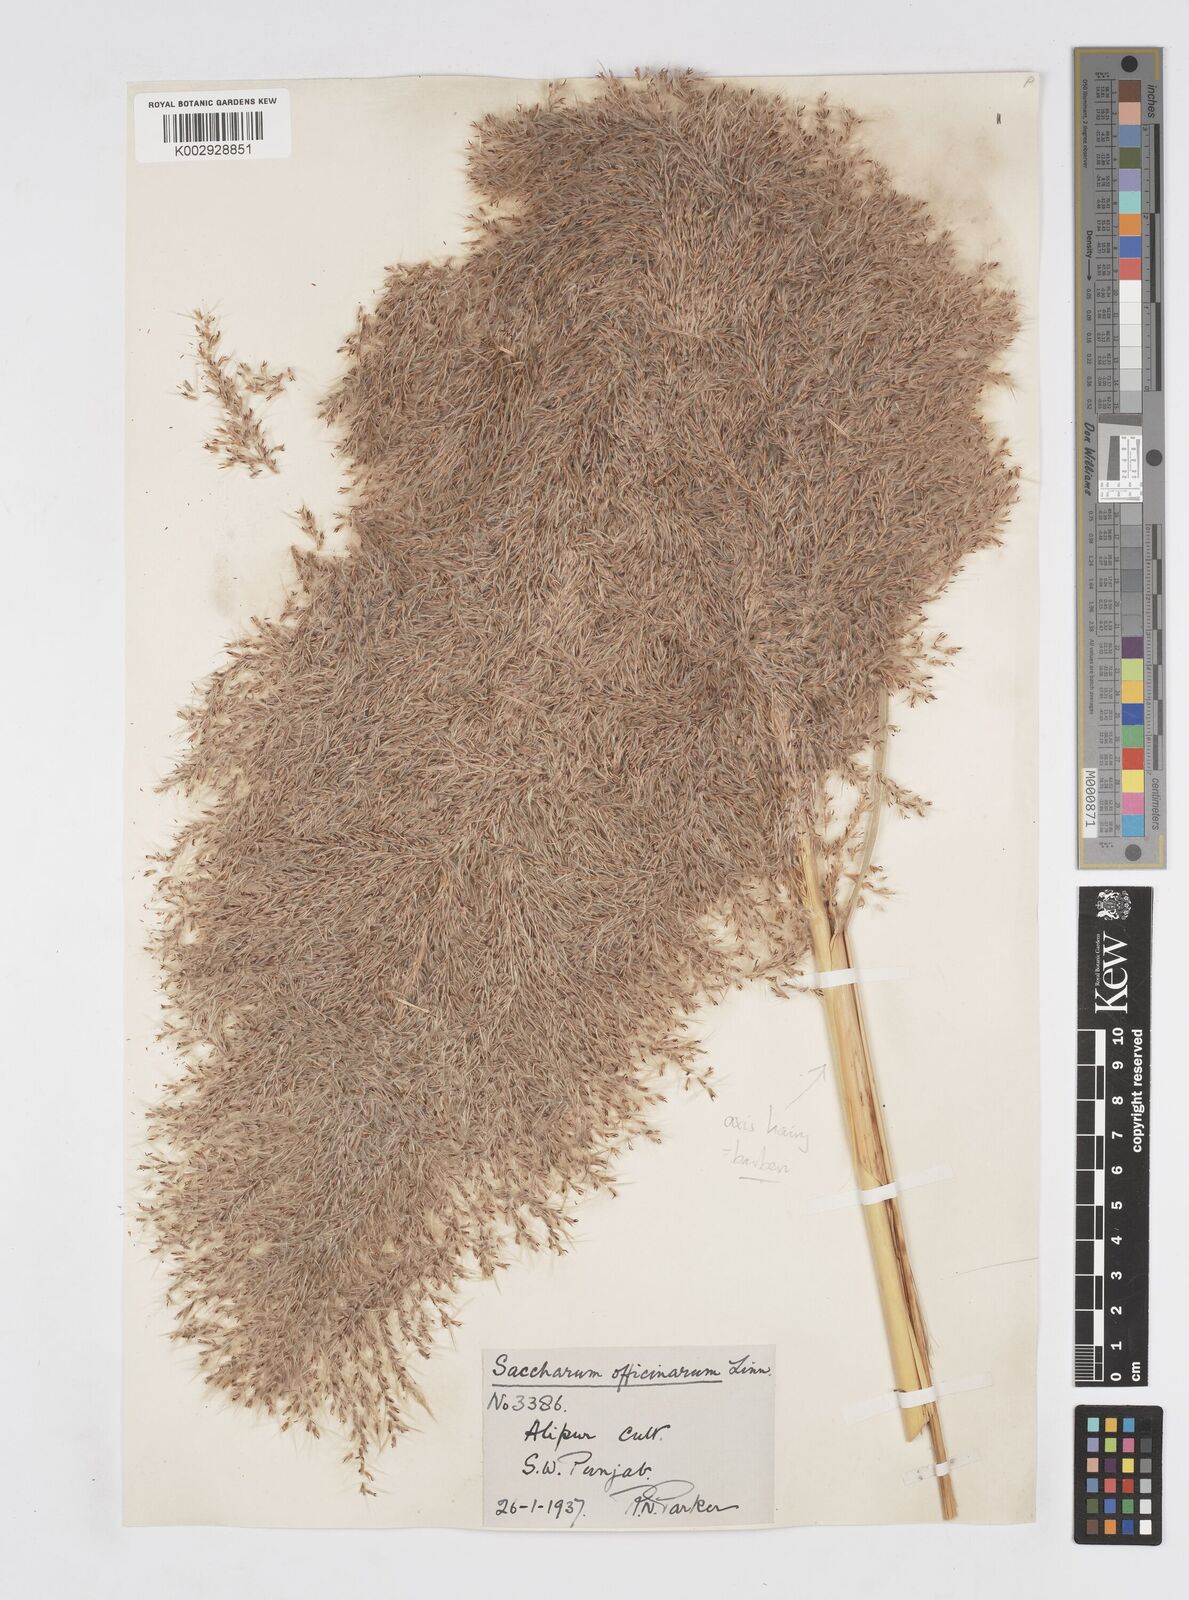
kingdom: Plantae
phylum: Tracheophyta
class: Liliopsida
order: Poales
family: Poaceae
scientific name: Poaceae
